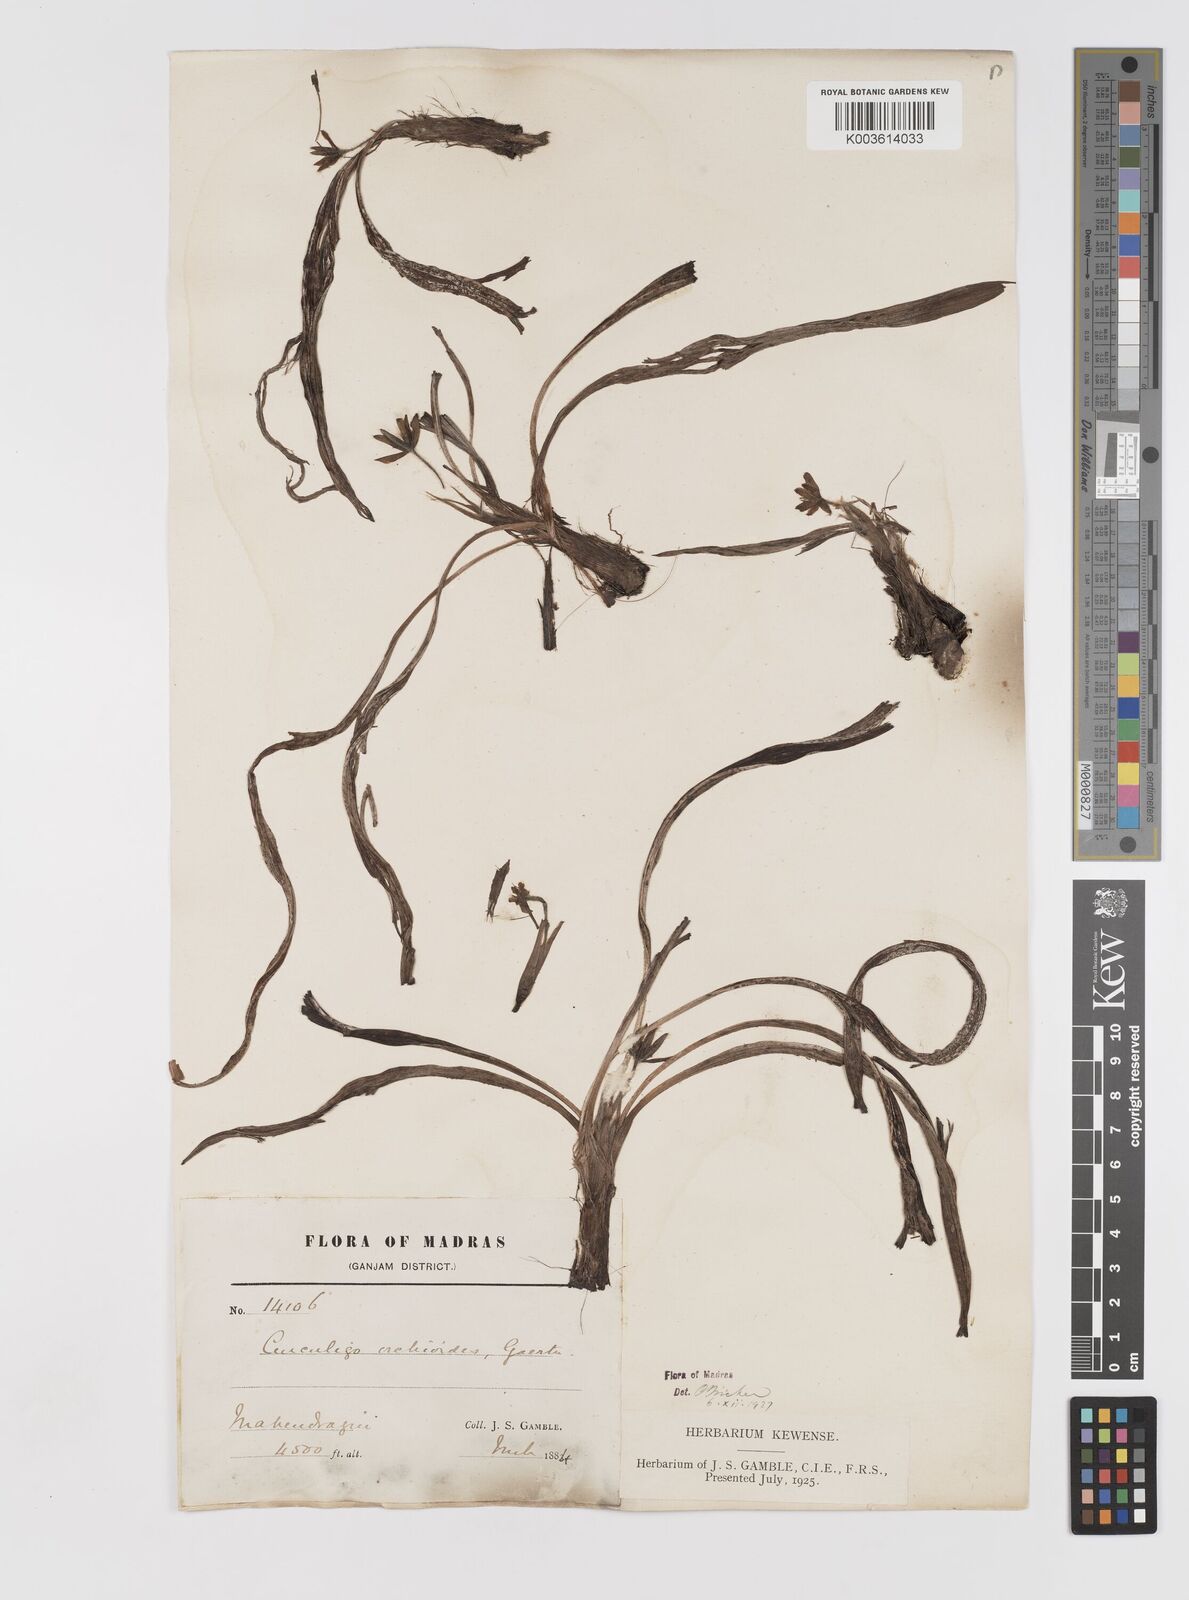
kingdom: Plantae
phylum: Tracheophyta
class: Liliopsida
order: Asparagales
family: Hypoxidaceae
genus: Curculigo
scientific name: Curculigo orchioides
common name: Golden eye-grass
